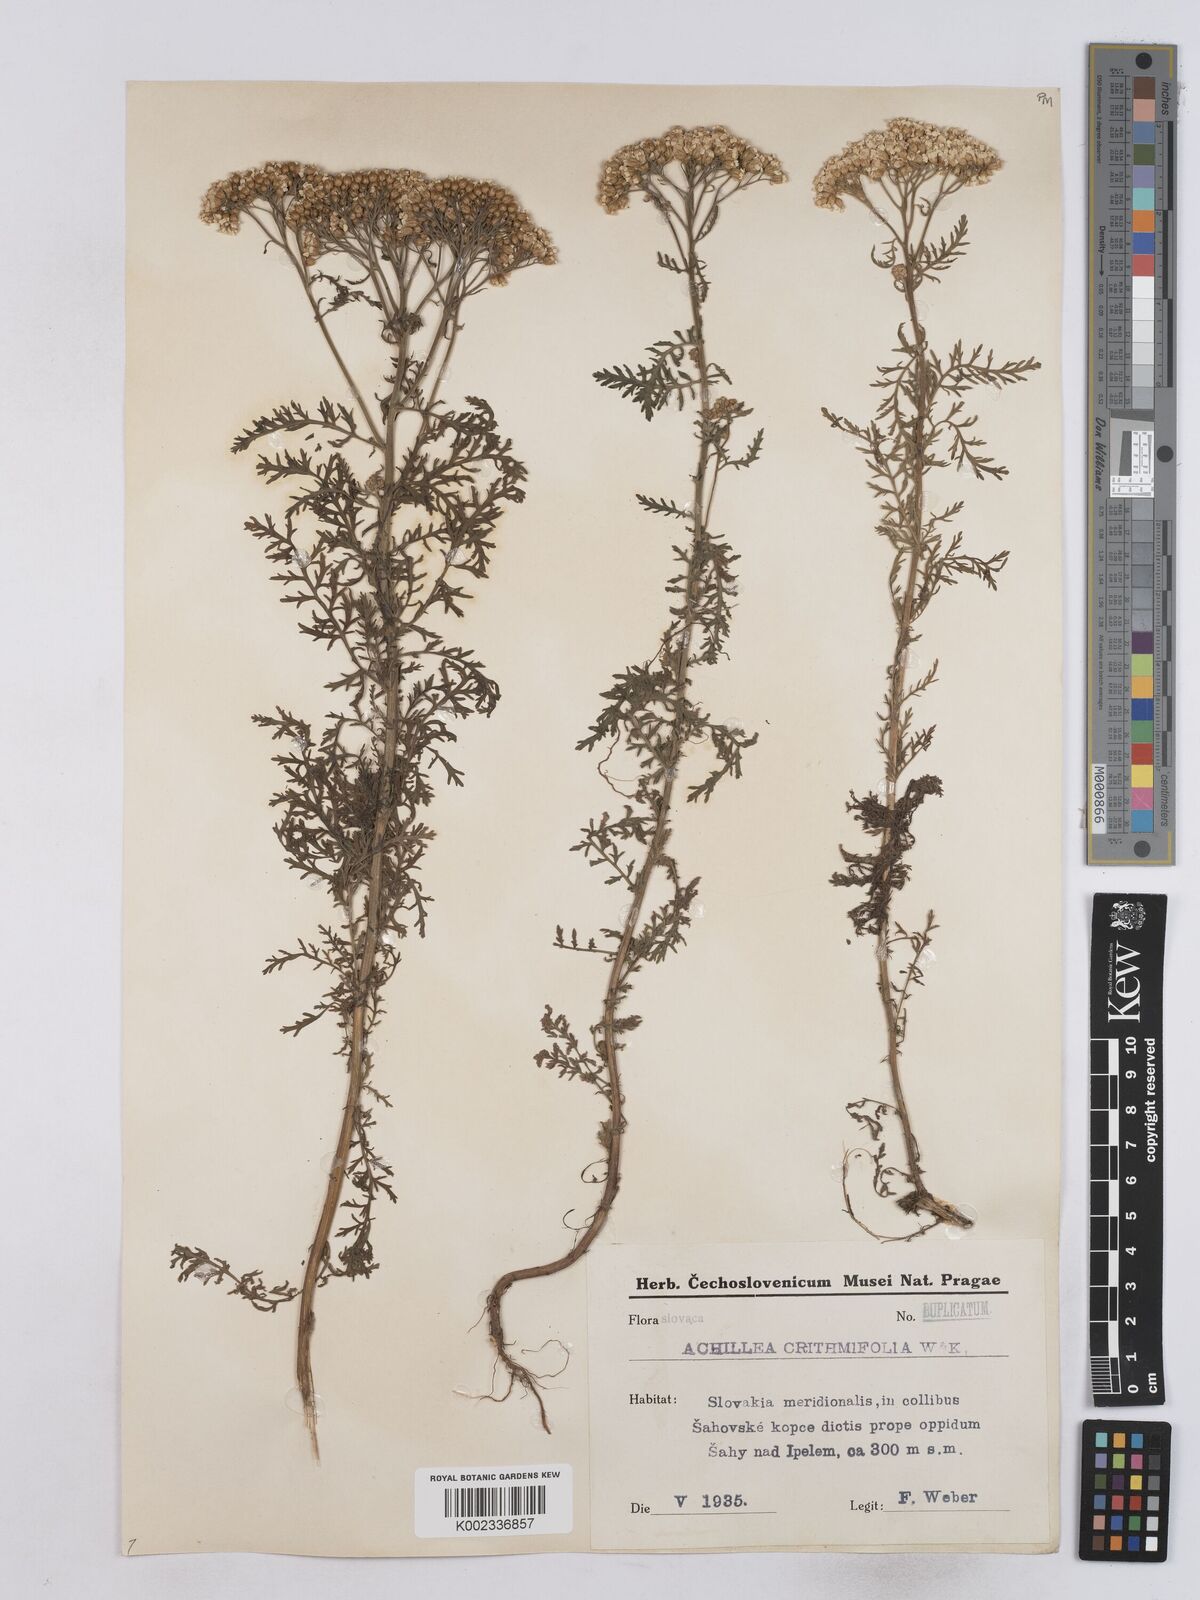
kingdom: Plantae
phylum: Tracheophyta
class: Magnoliopsida
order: Asterales
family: Asteraceae
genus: Achillea
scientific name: Achillea crithmifolia
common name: Yarrow
